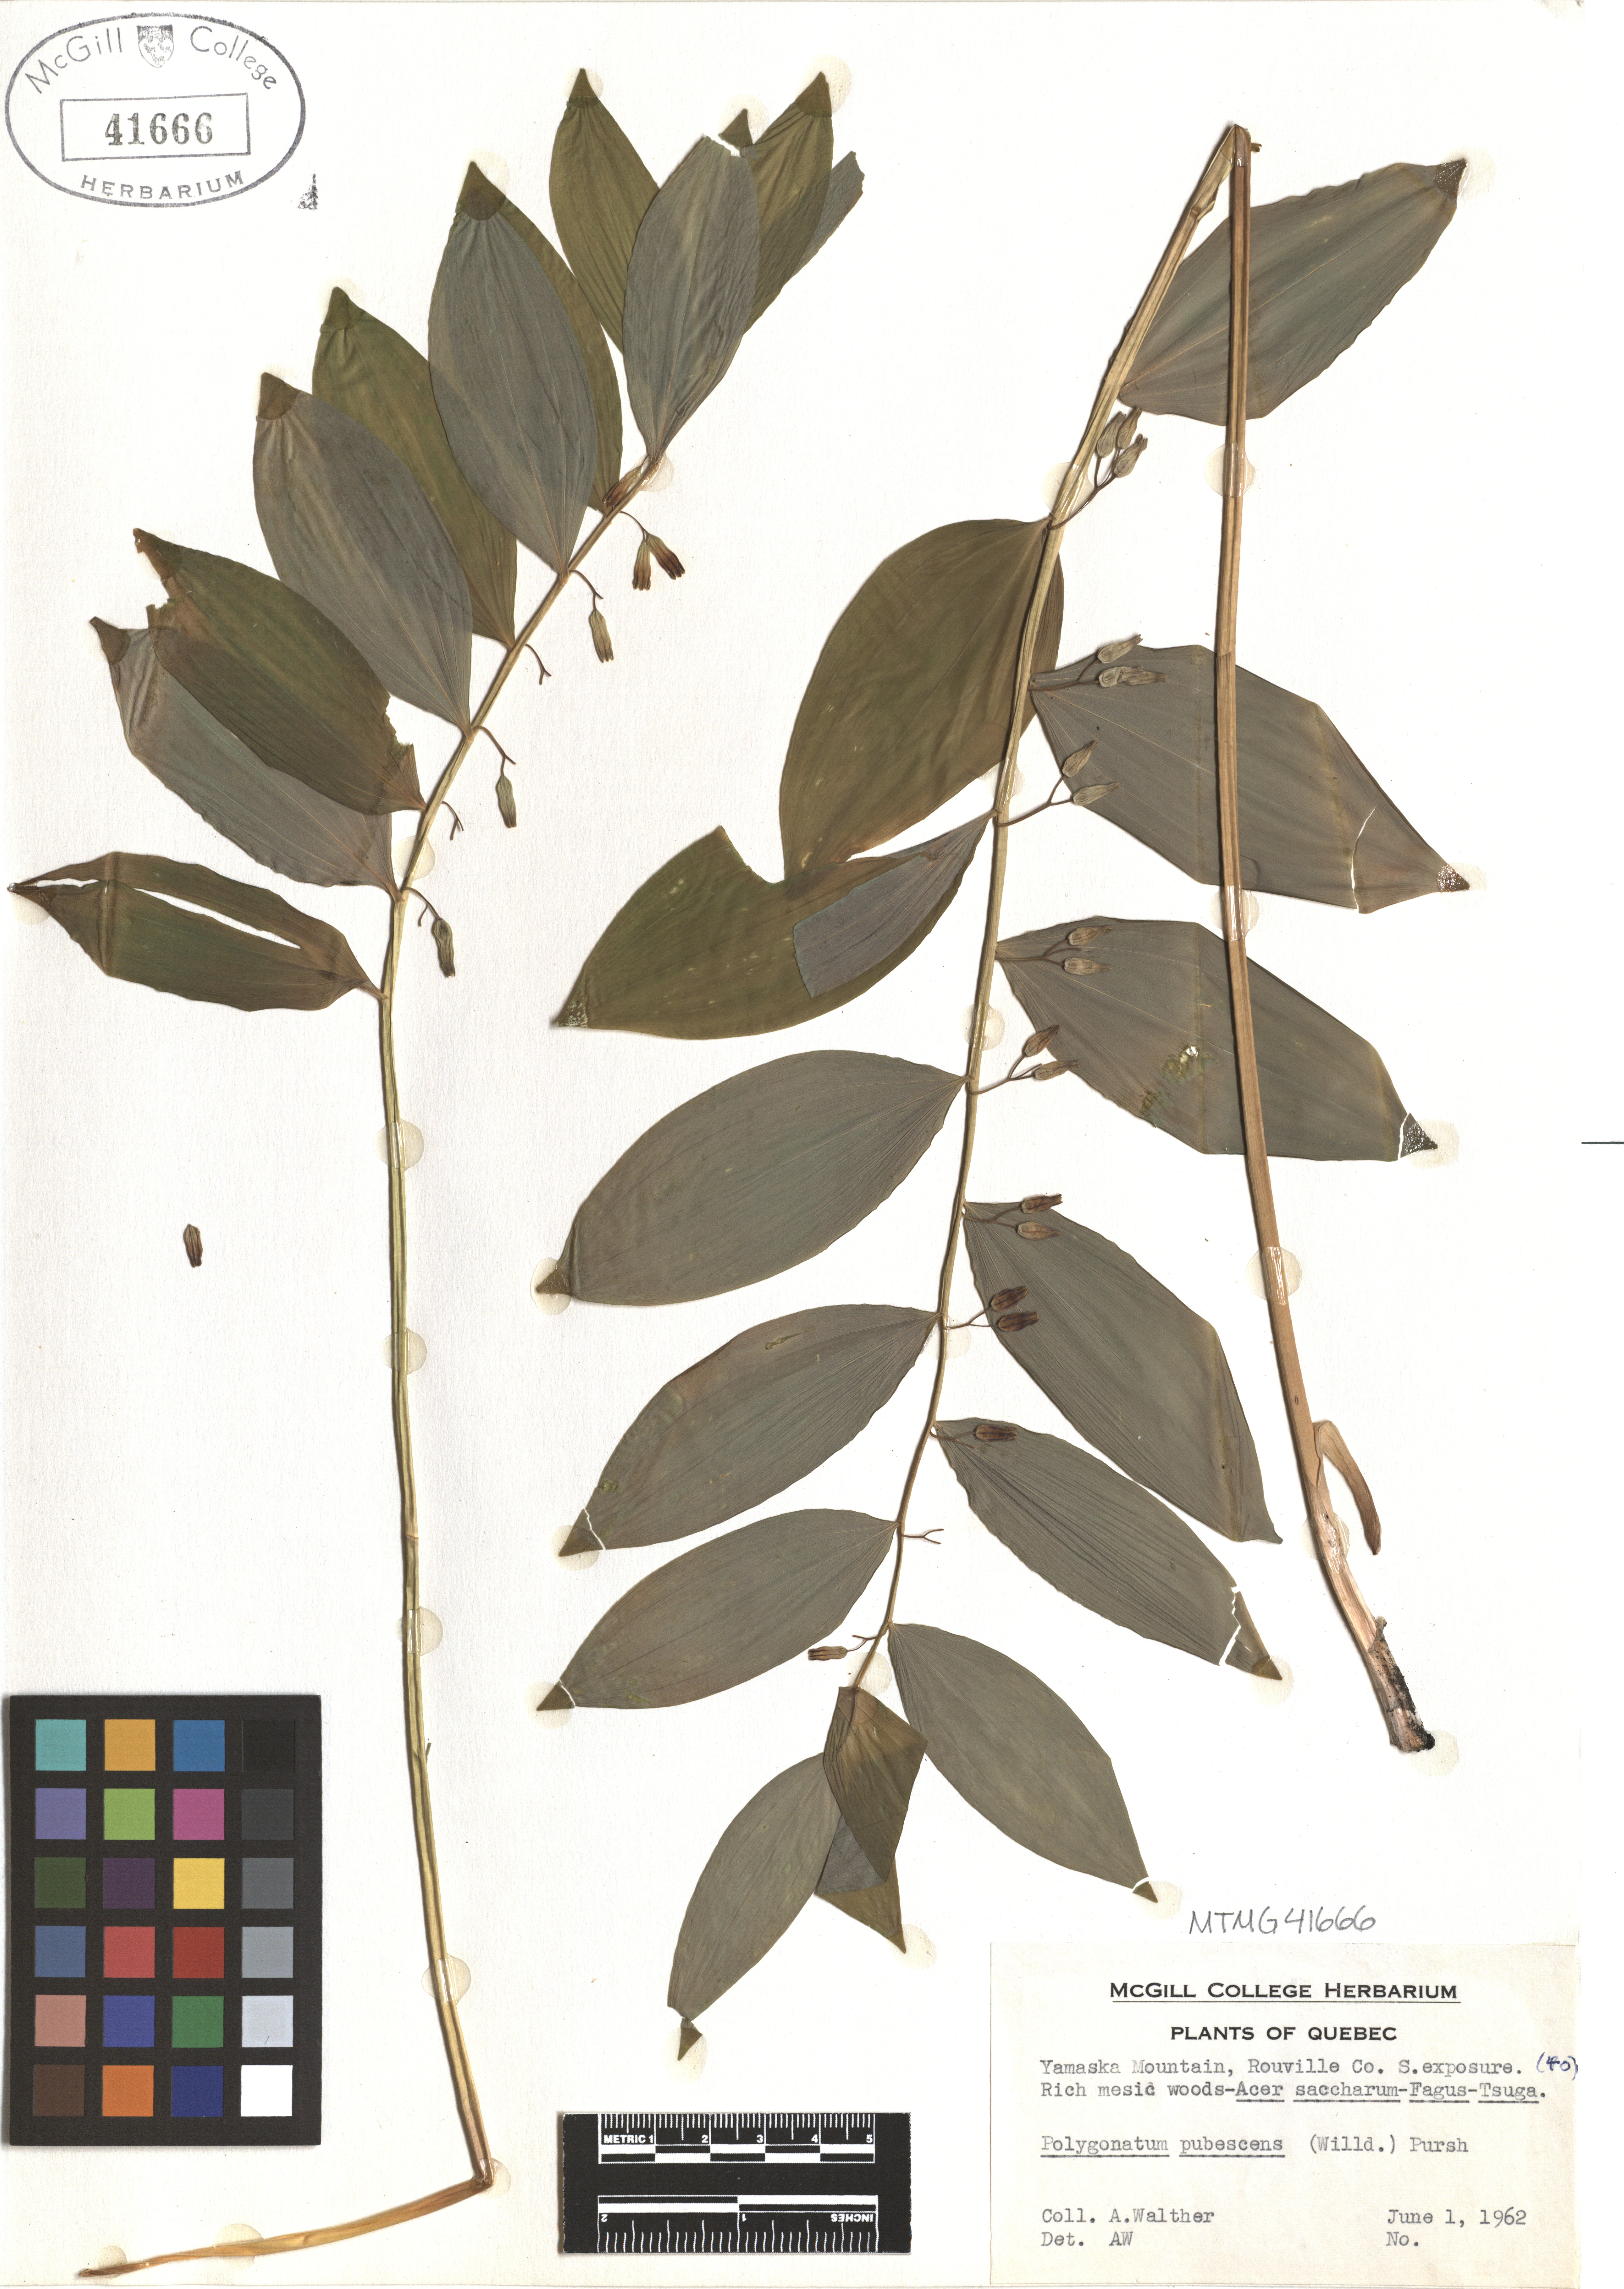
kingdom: Plantae
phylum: Tracheophyta
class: Liliopsida
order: Asparagales
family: Asparagaceae
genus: Polygonatum
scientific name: Polygonatum pubescens
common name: Downy solomon's seal
